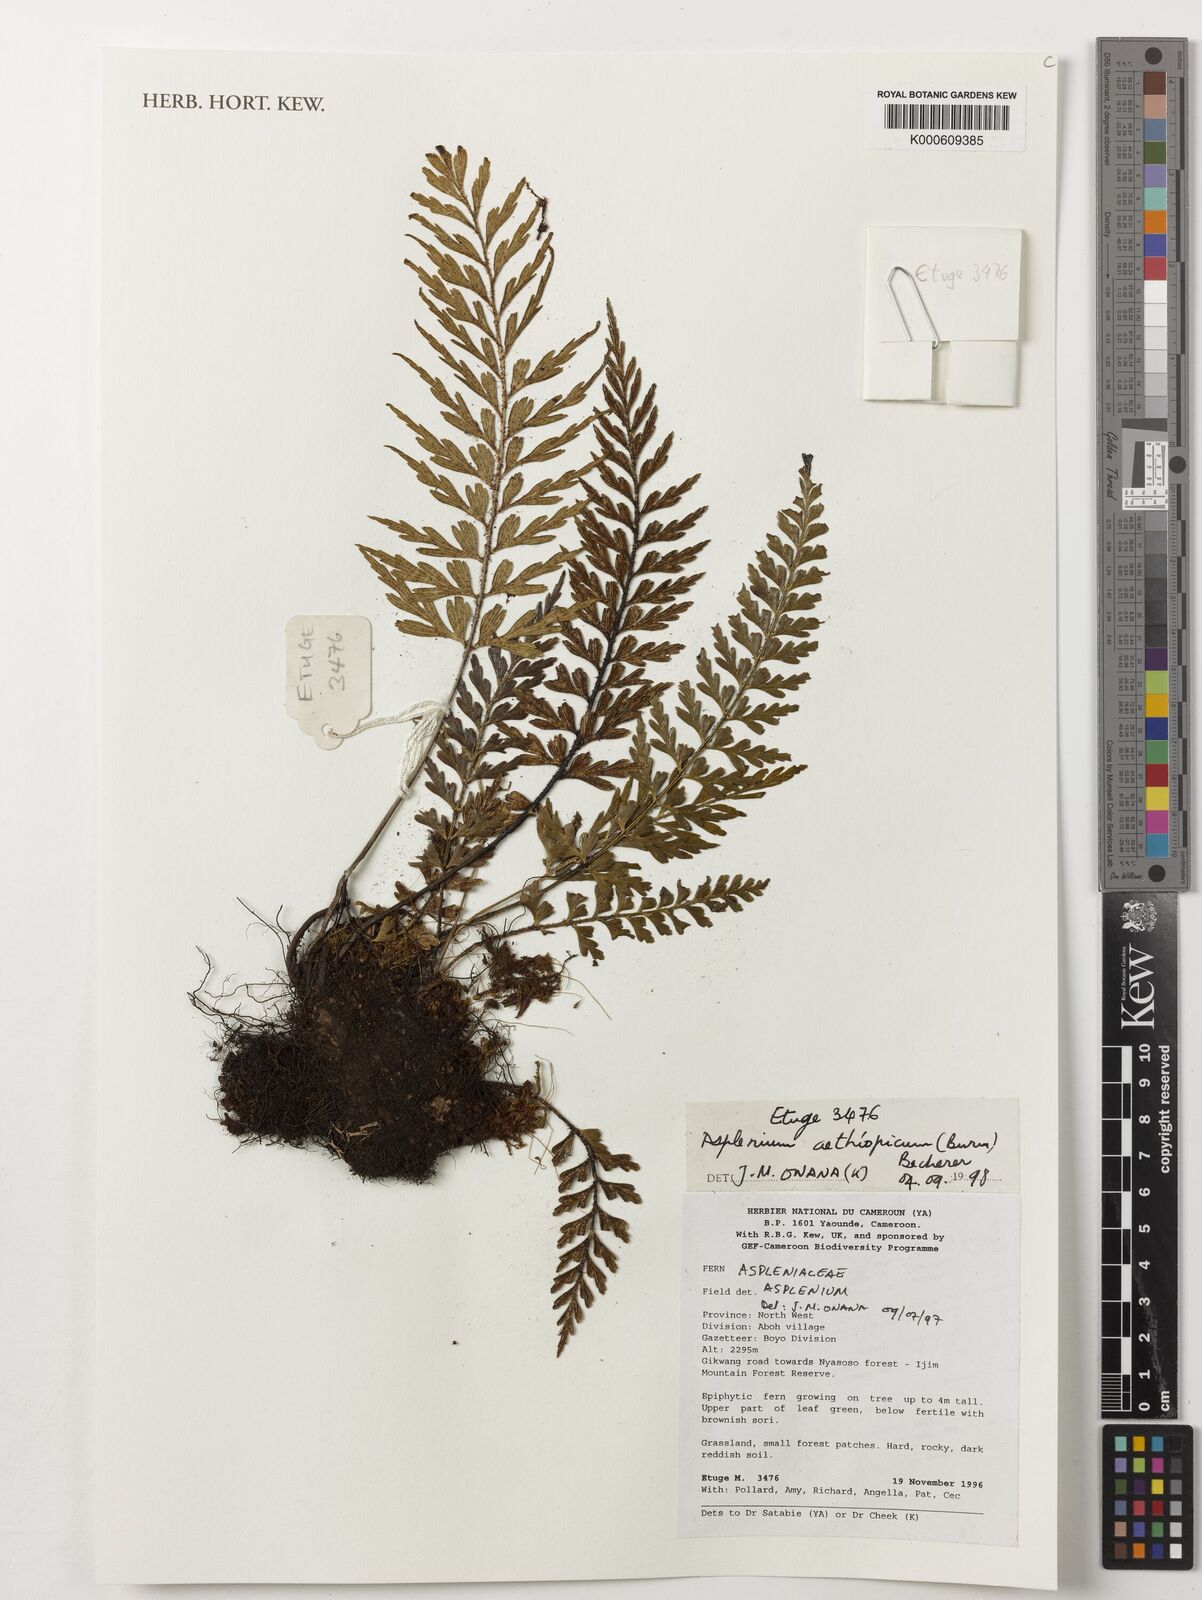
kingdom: Plantae
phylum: Tracheophyta
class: Polypodiopsida
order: Polypodiales
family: Aspleniaceae
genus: Asplenium
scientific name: Asplenium aethiopicum
